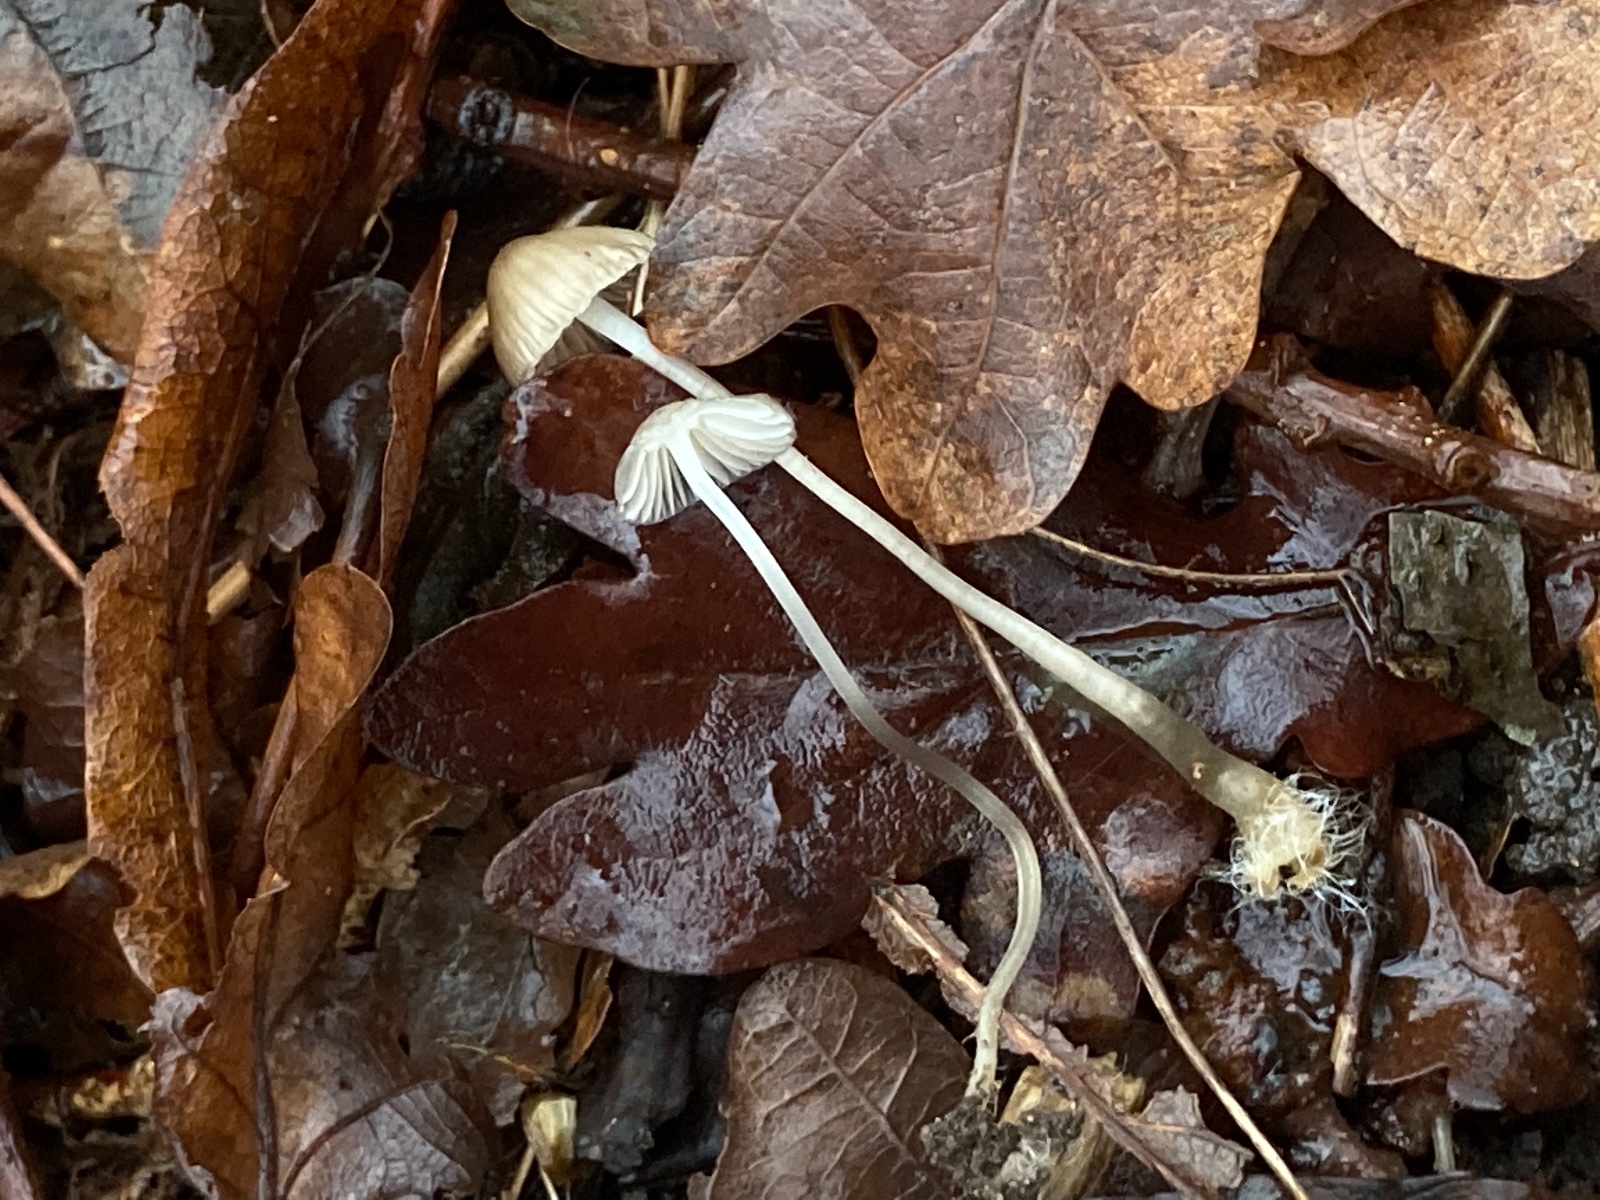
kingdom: Fungi
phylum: Basidiomycota
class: Agaricomycetes
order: Agaricales
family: Mycenaceae
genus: Mycena
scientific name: Mycena vitilis
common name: blankstokket huesvamp
